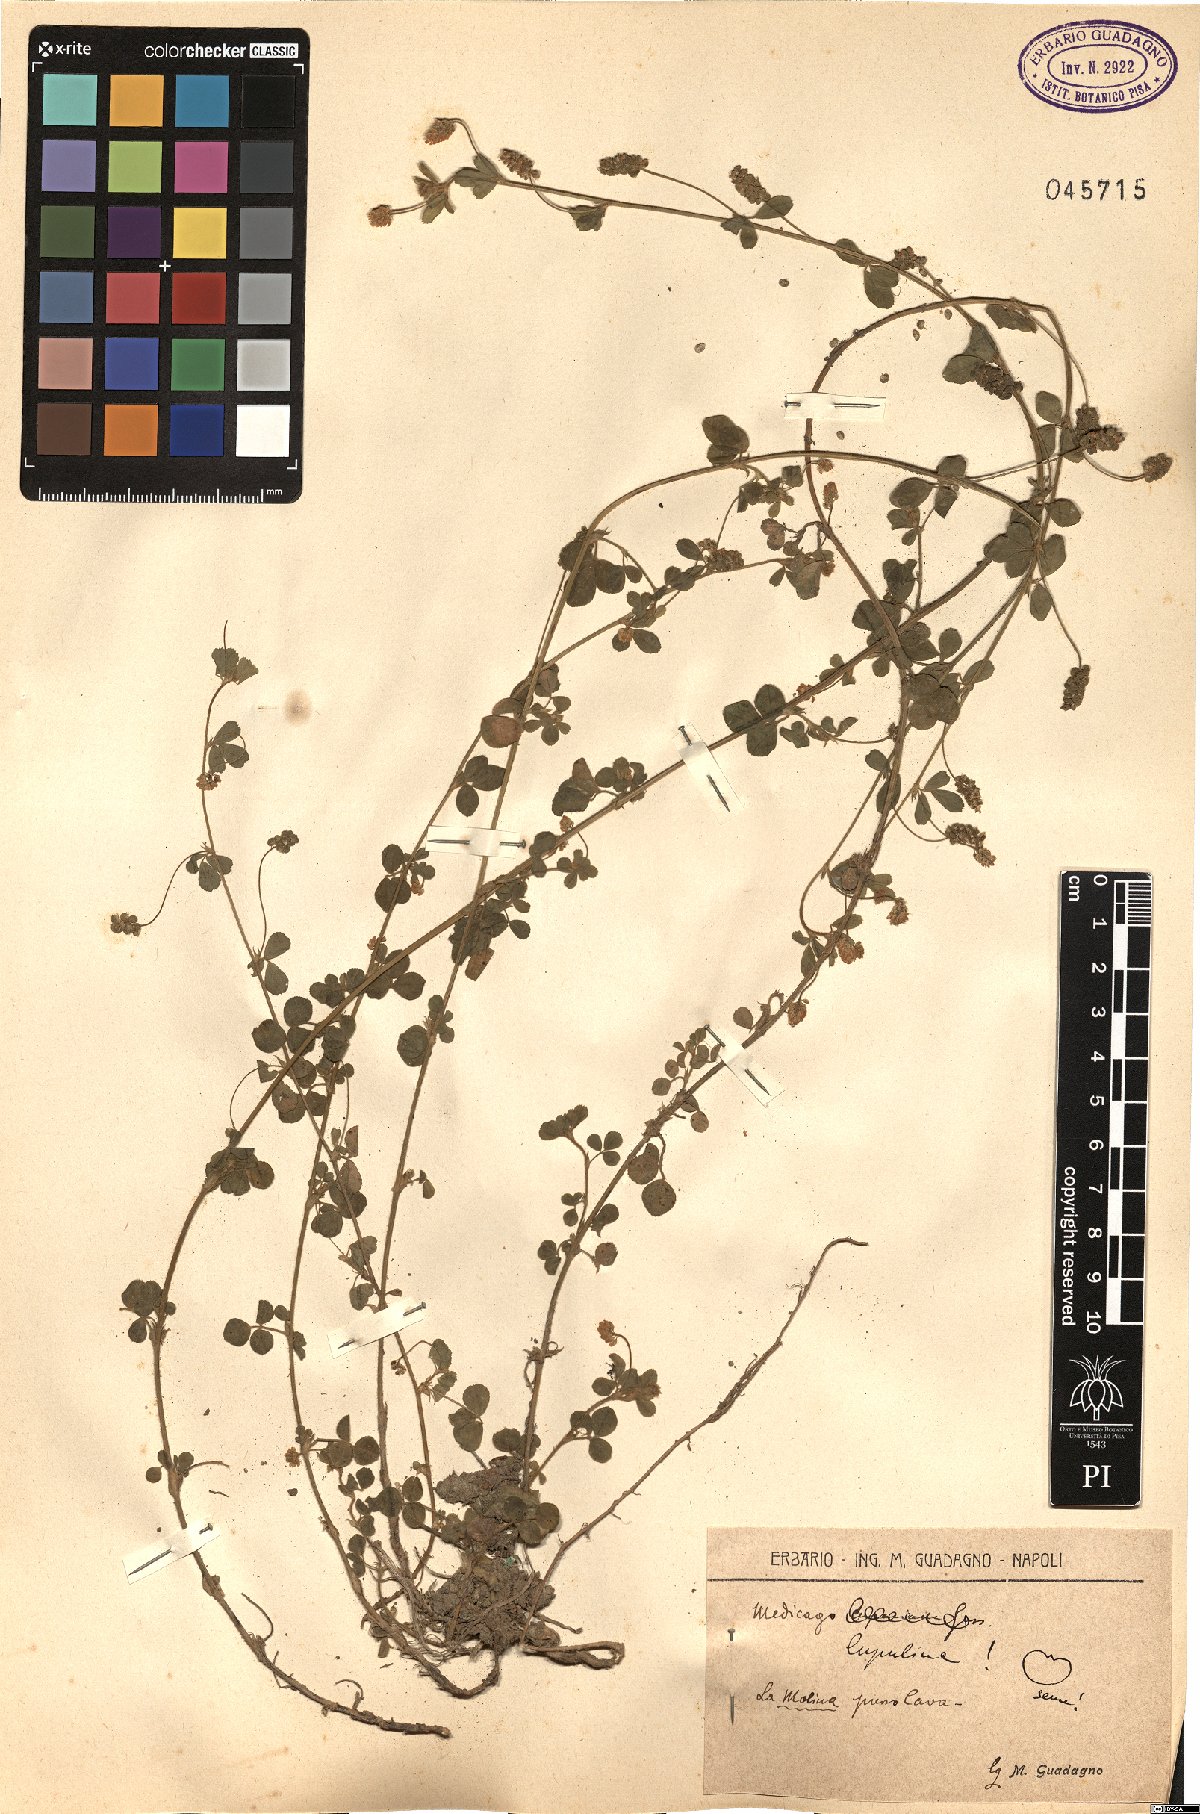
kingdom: Plantae
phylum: Tracheophyta
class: Magnoliopsida
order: Fabales
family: Fabaceae
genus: Medicago
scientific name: Medicago lupulina
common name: Black medick
